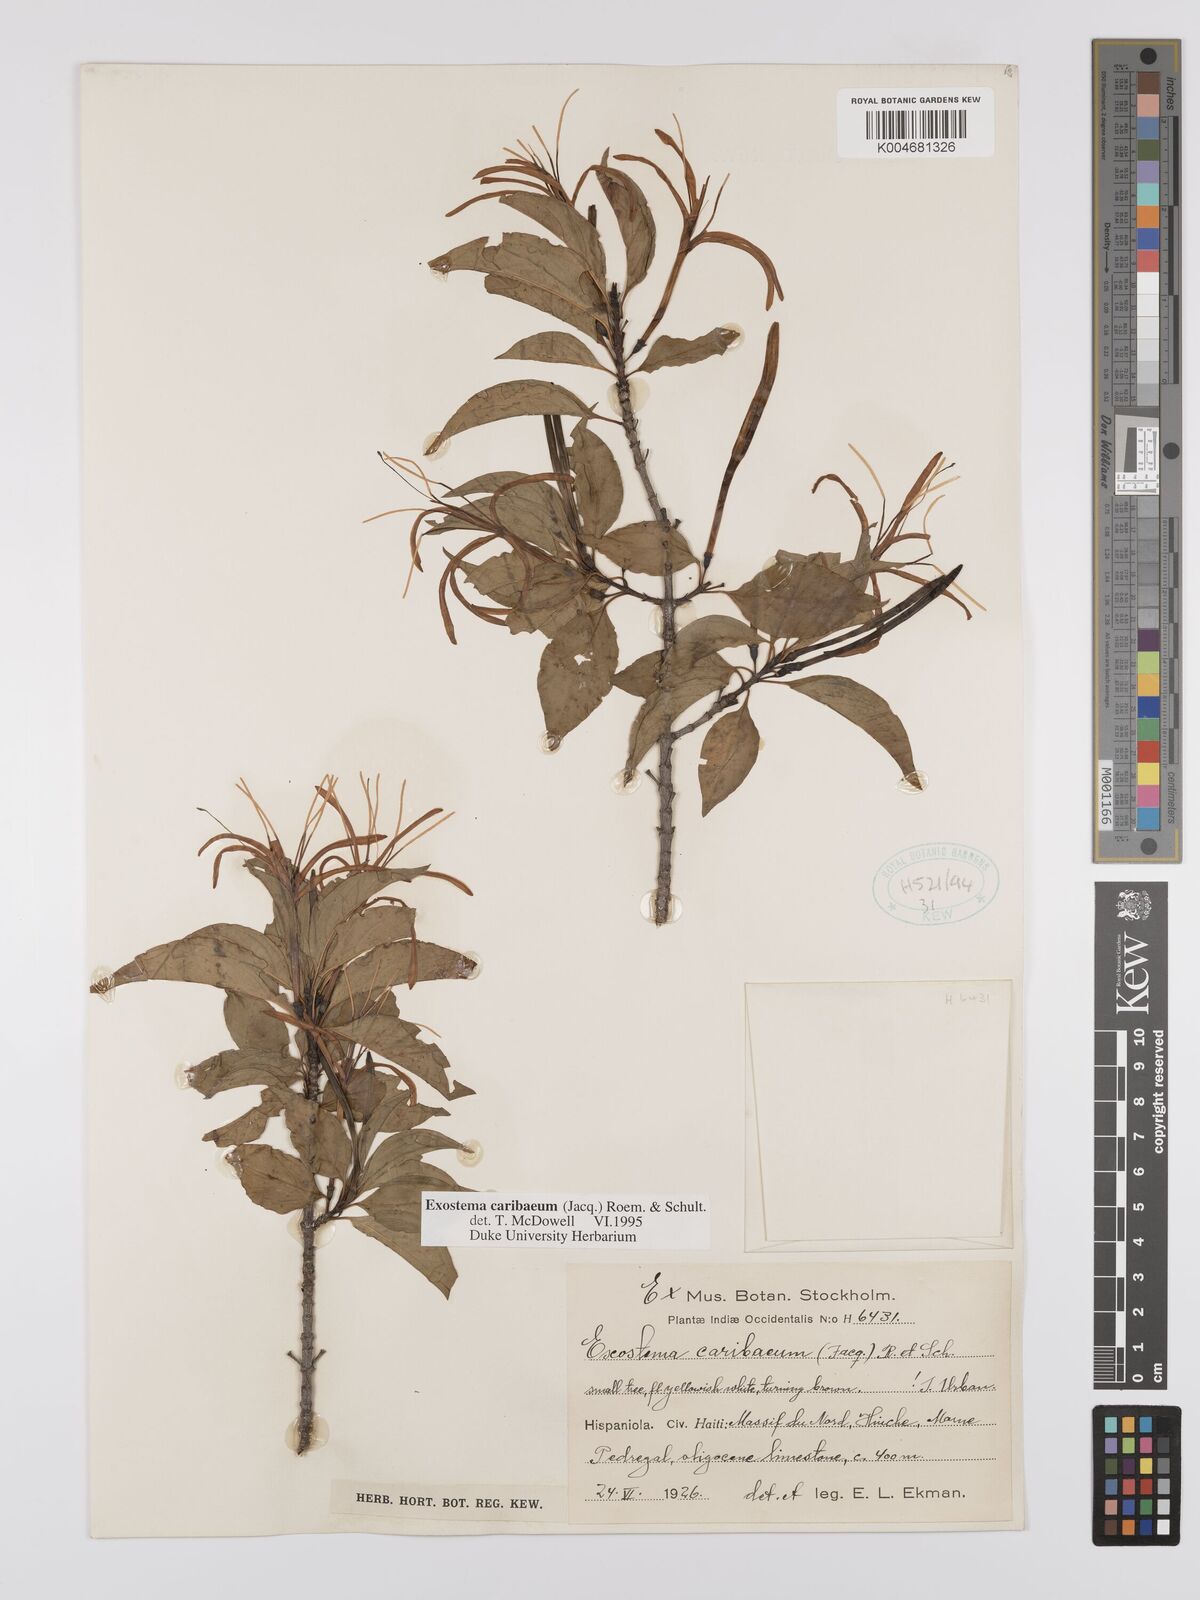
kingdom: Plantae
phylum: Tracheophyta
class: Magnoliopsida
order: Gentianales
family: Rubiaceae
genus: Exostema
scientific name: Exostema caribaeum
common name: Princewood
